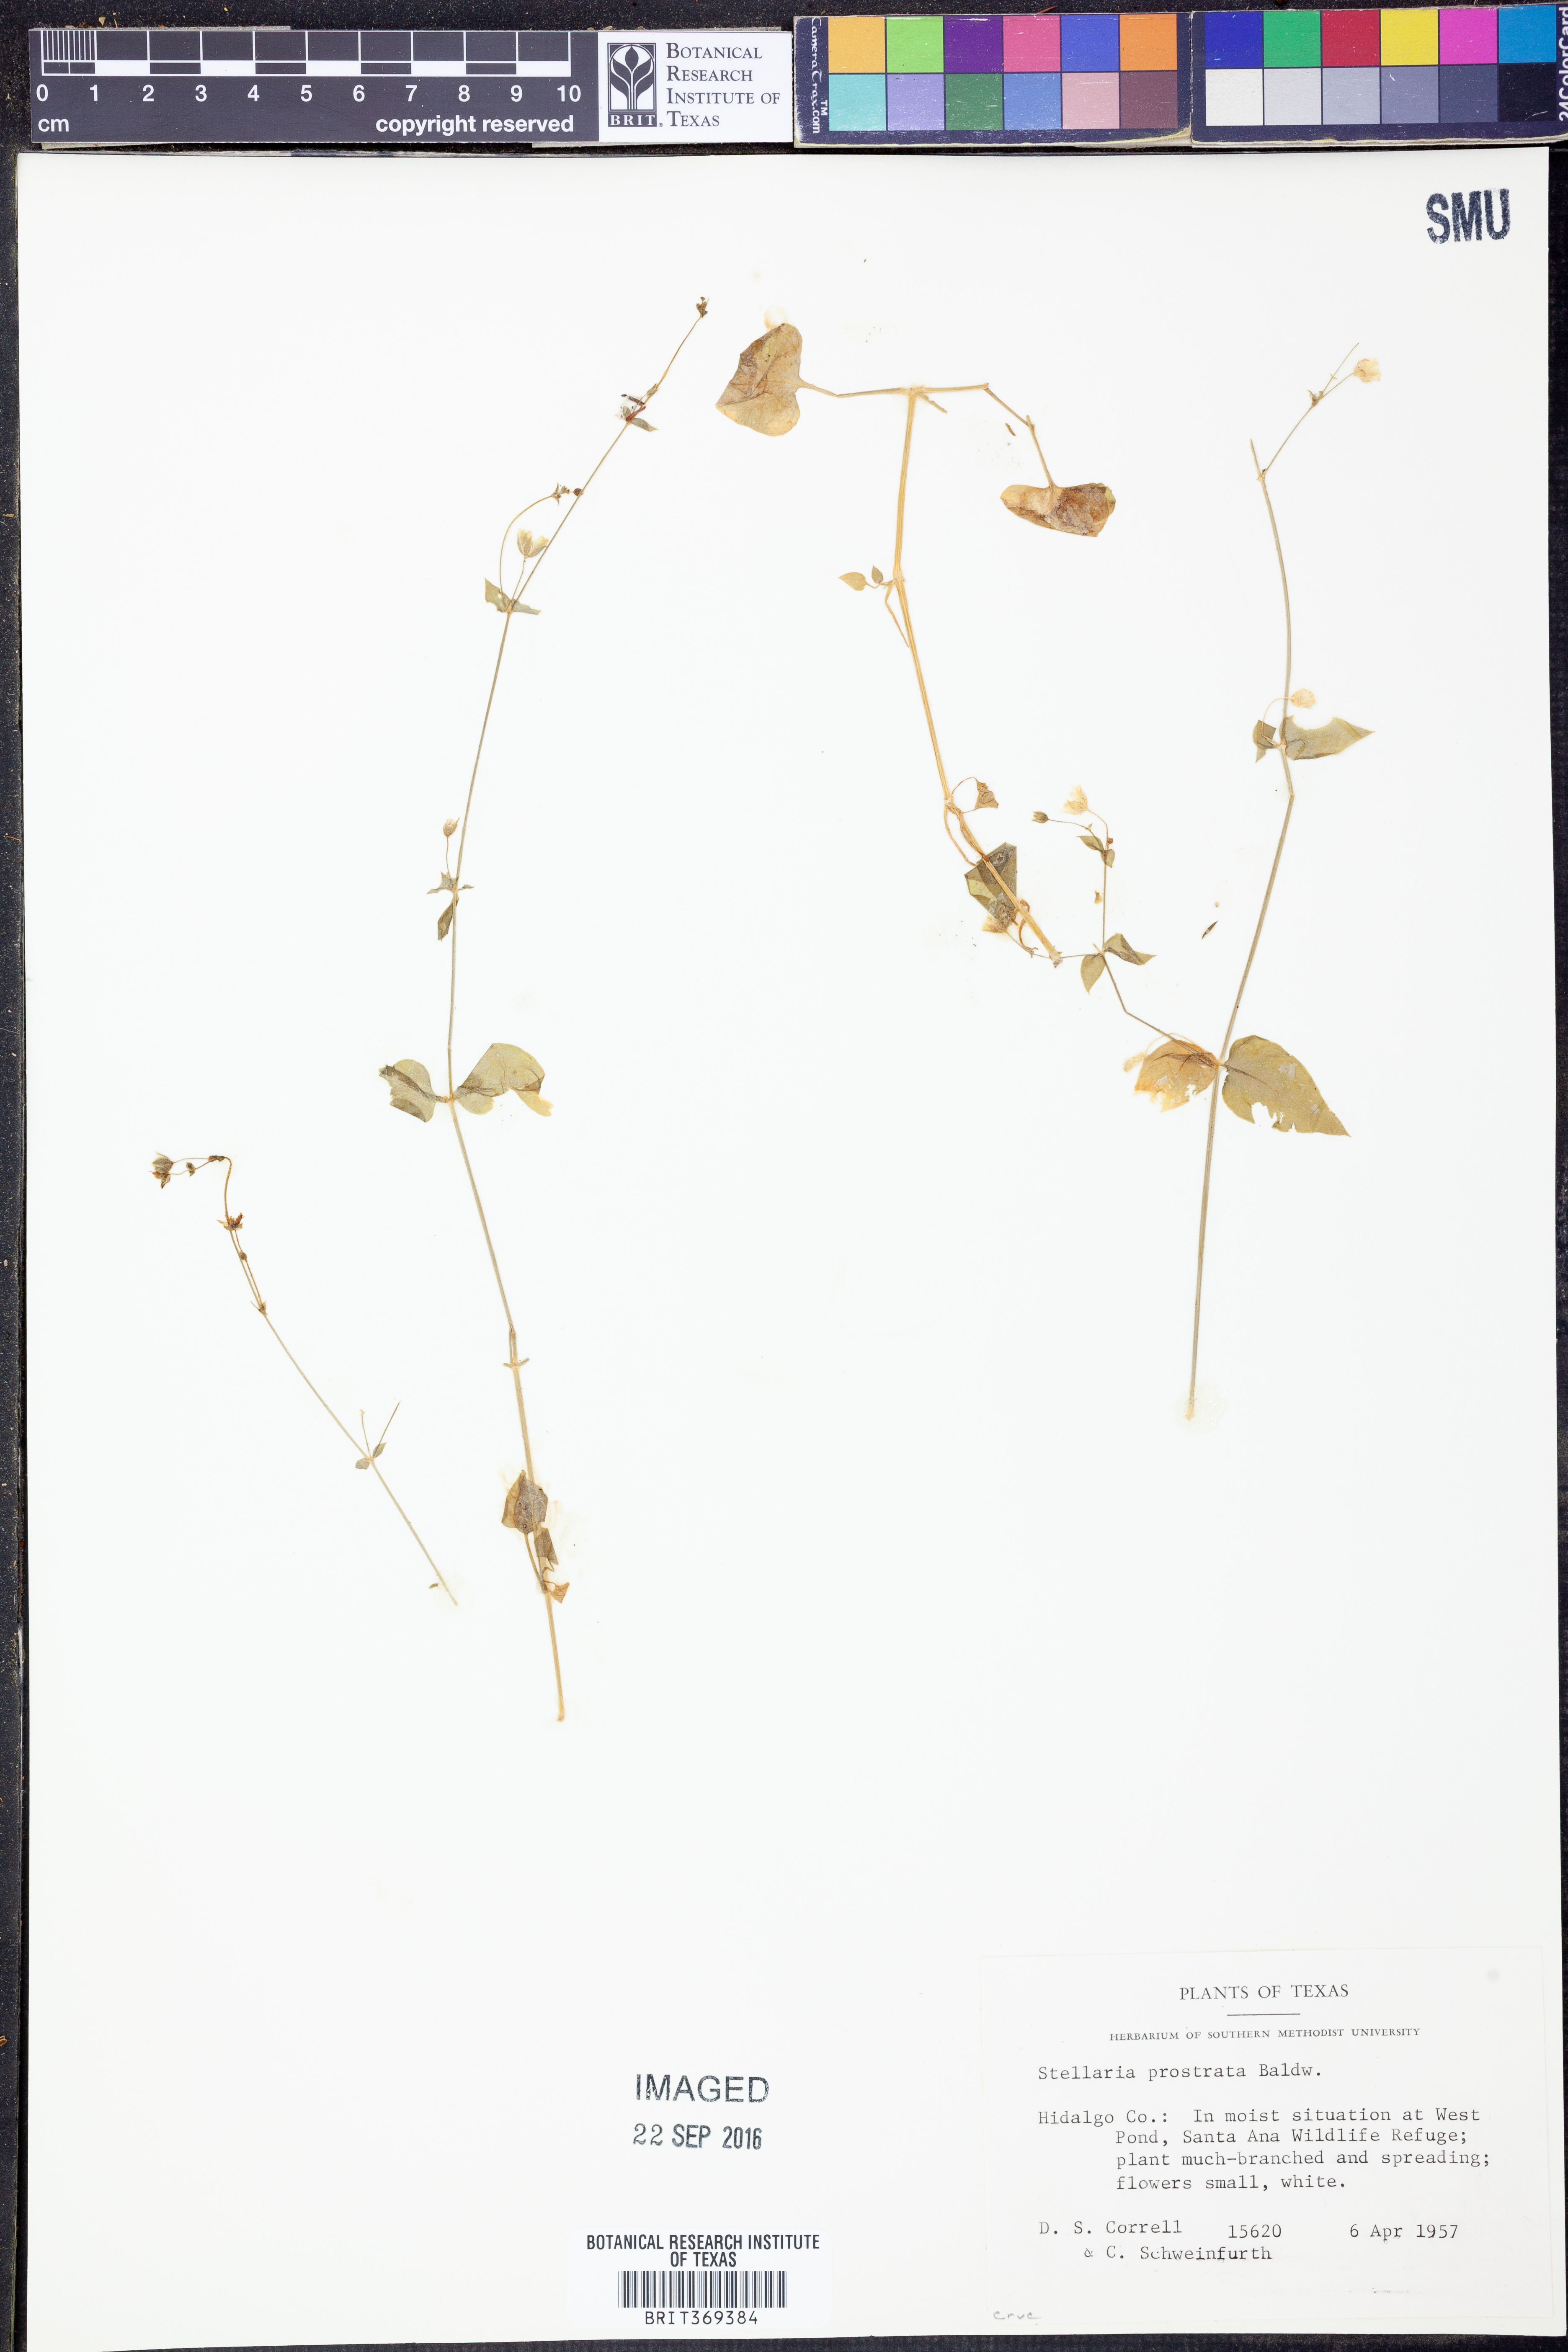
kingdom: Plantae
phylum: Tracheophyta
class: Magnoliopsida
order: Caryophyllales
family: Caryophyllaceae
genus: Stellaria
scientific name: Stellaria cuspidata
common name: Mexican chickweed
